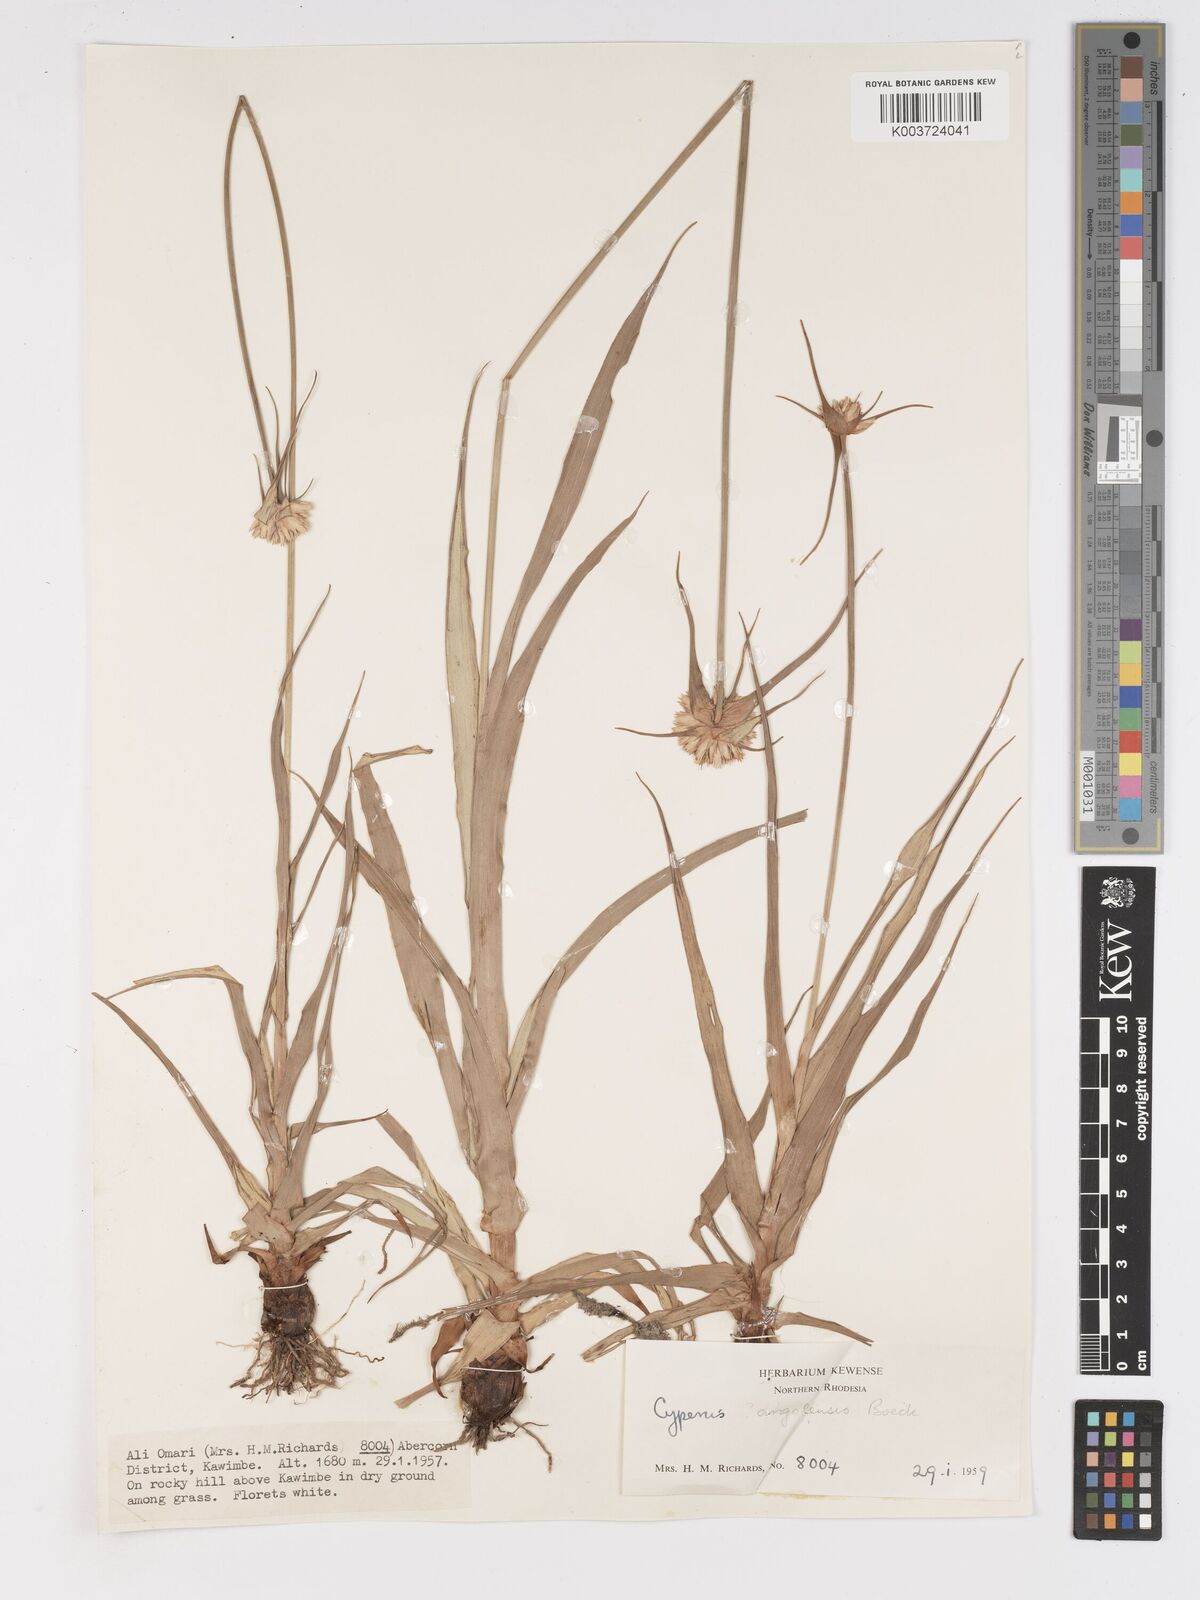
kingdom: Plantae
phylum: Tracheophyta
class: Liliopsida
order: Poales
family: Cyperaceae
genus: Cyperus
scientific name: Cyperus niveus
